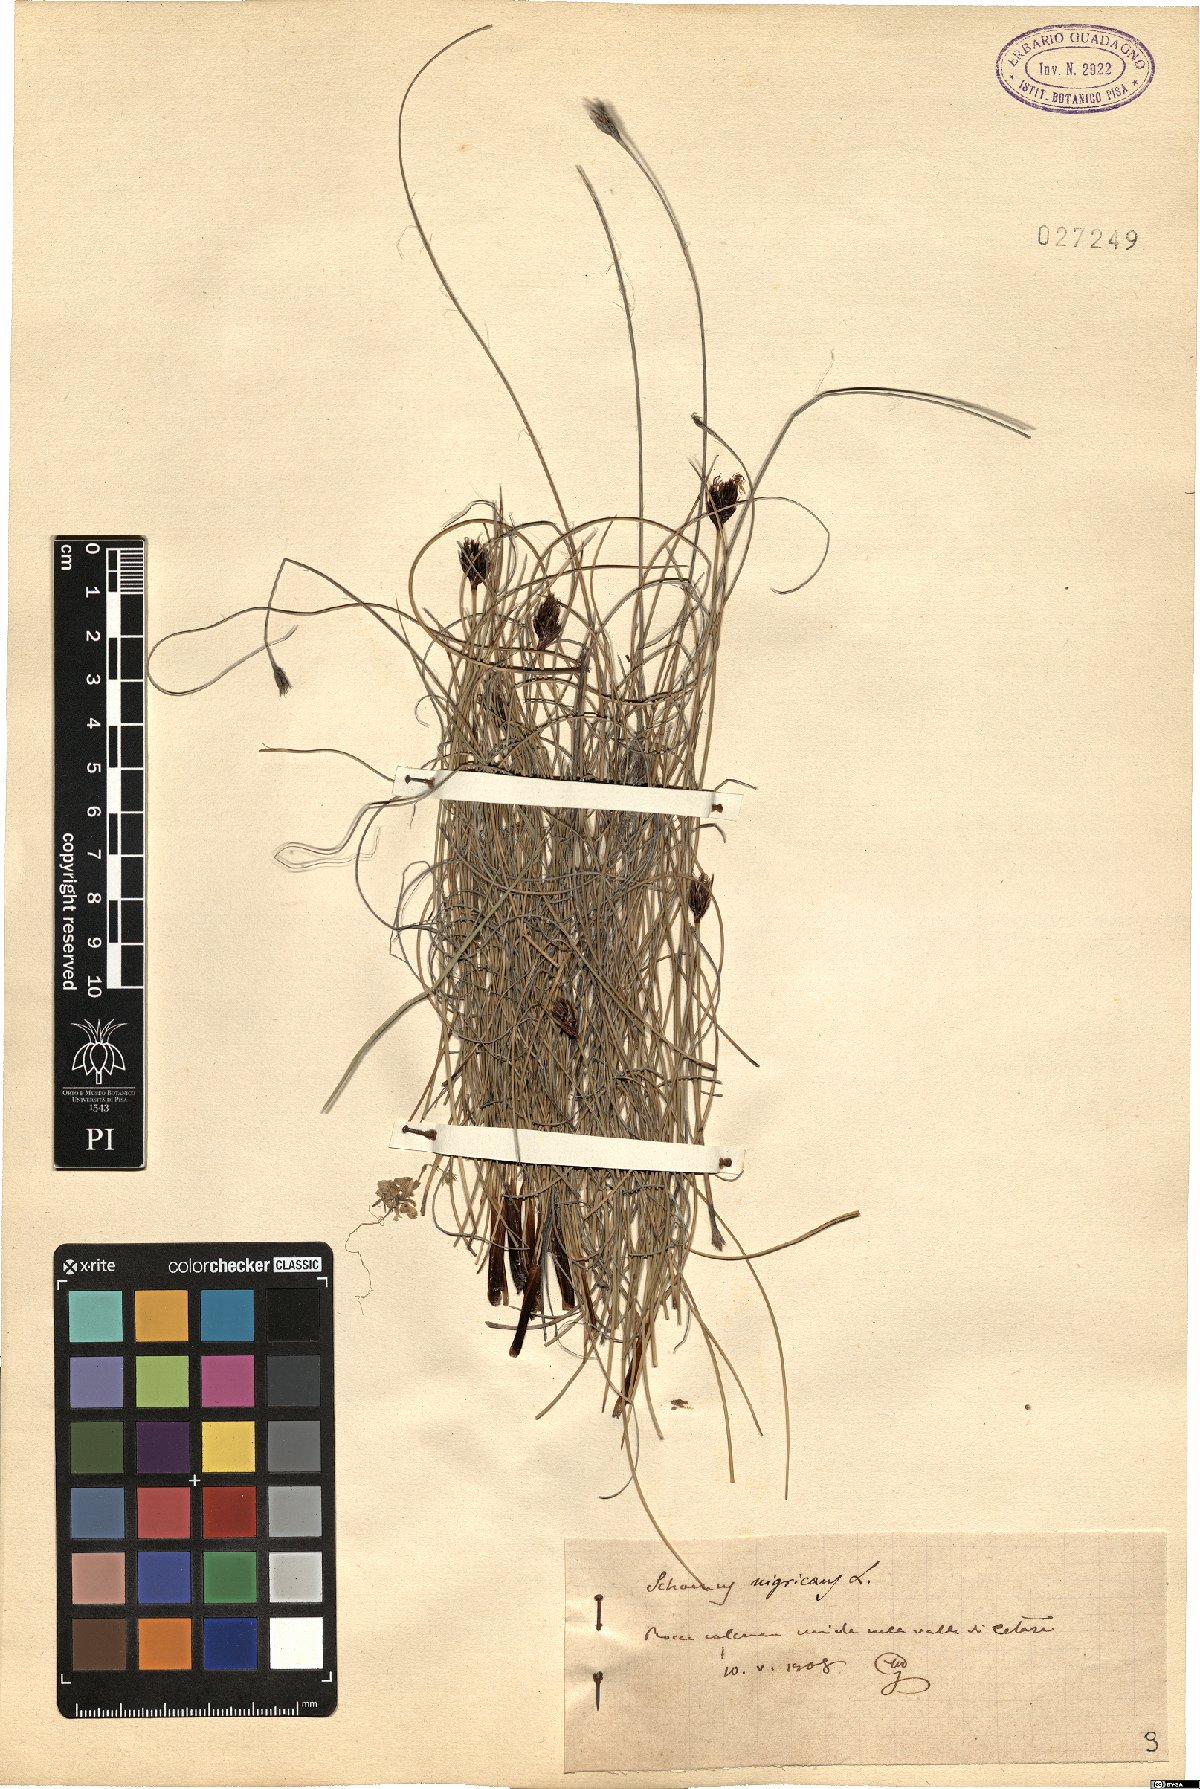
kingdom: Plantae
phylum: Tracheophyta
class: Liliopsida
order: Poales
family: Cyperaceae
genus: Schoenus
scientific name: Schoenus nigricans
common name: Black bog-rush
